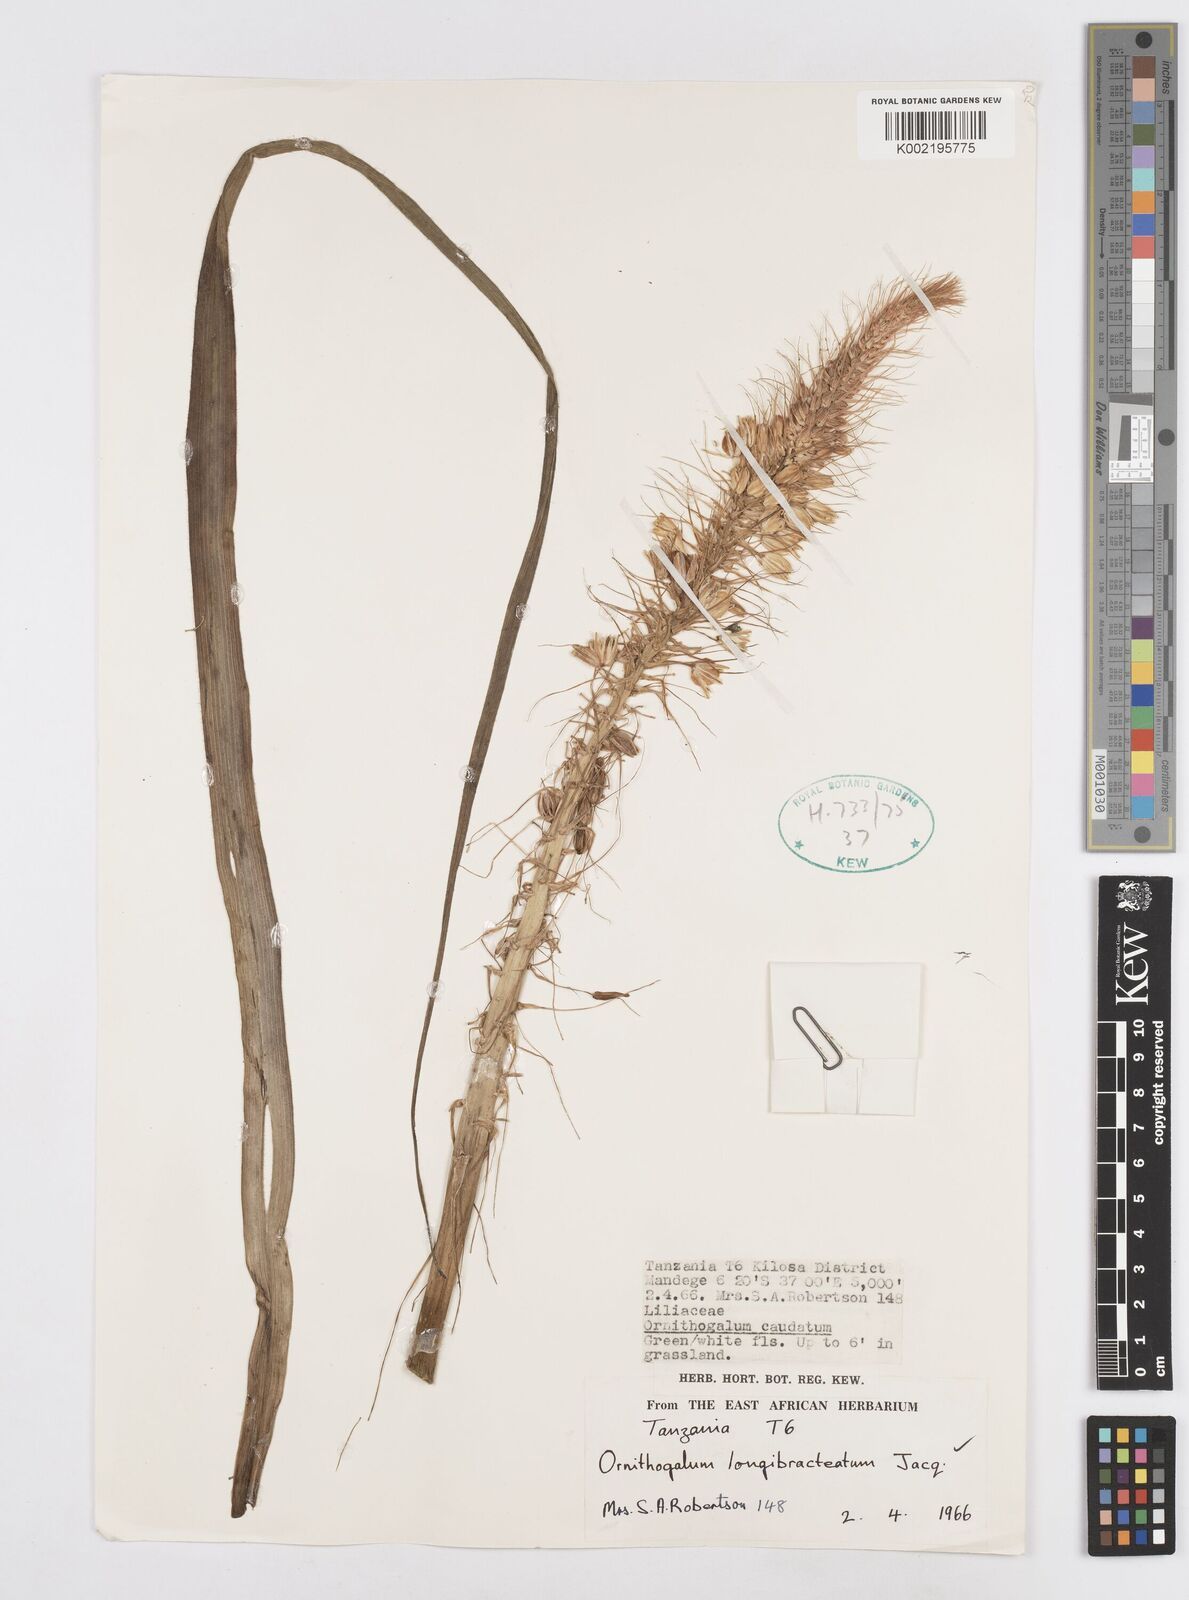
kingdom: Plantae
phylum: Tracheophyta
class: Liliopsida
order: Asparagales
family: Asparagaceae
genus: Ornithogalum
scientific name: Ornithogalum
